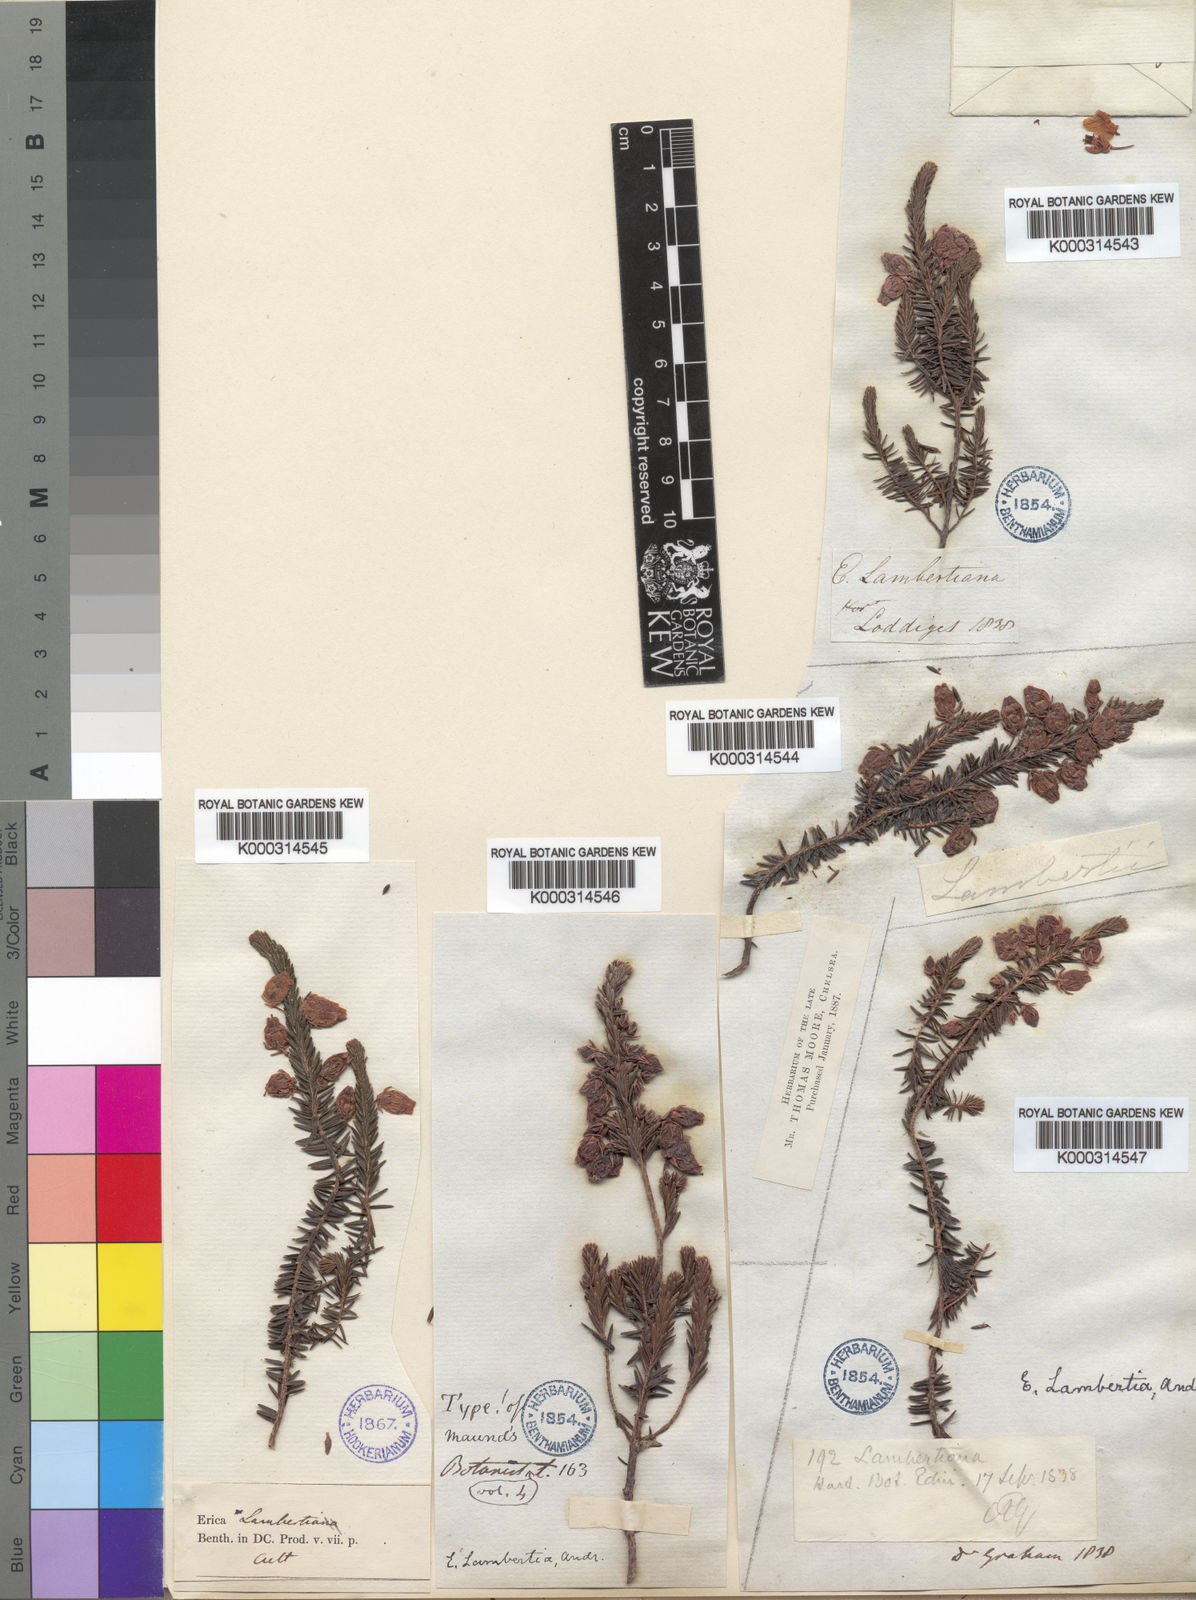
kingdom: Plantae
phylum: Tracheophyta
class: Magnoliopsida
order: Ericales
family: Ericaceae
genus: Erica
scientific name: Erica physodes
